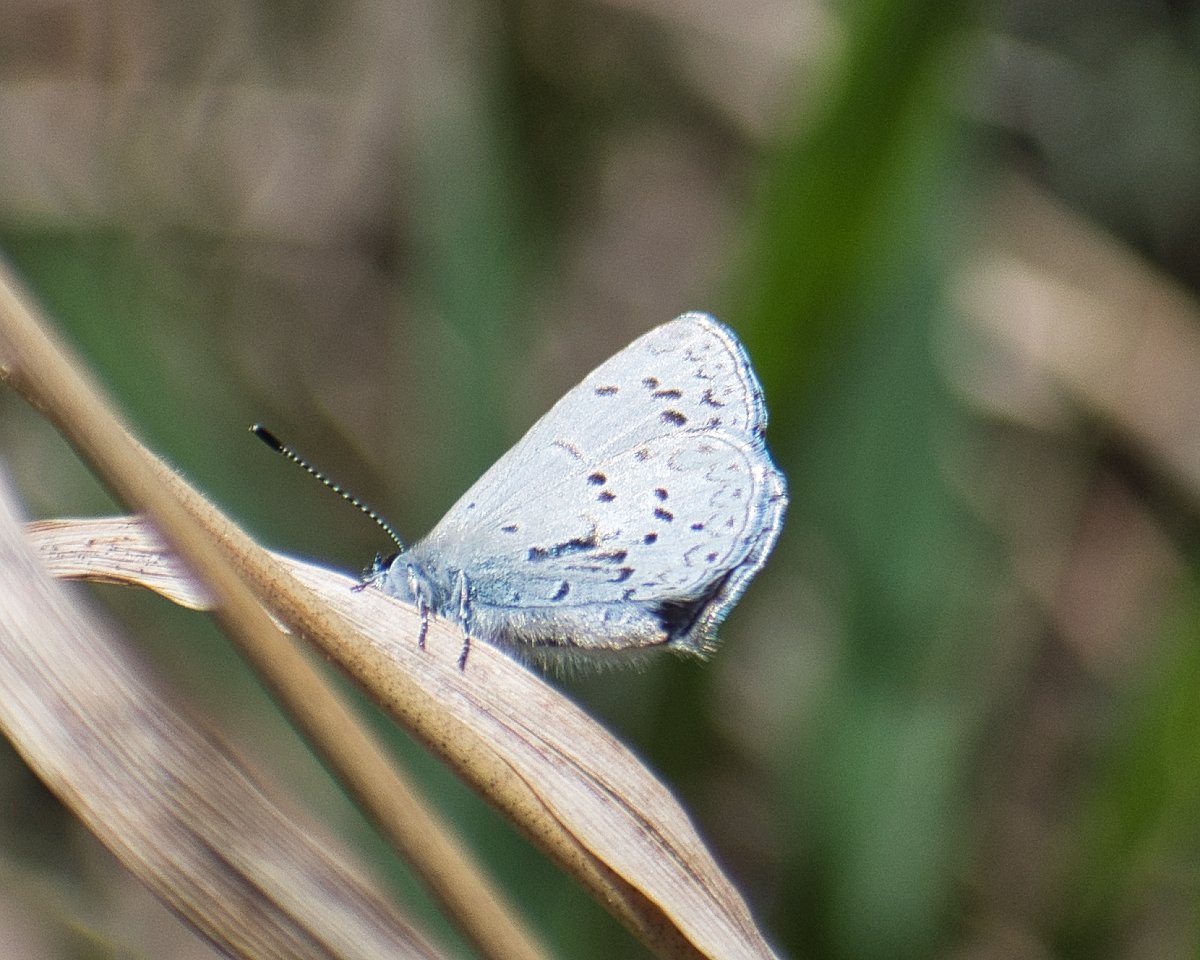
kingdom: Animalia
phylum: Arthropoda
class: Insecta
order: Lepidoptera
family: Lycaenidae
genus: Celastrina
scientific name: Celastrina ladon
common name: Echo Azure
